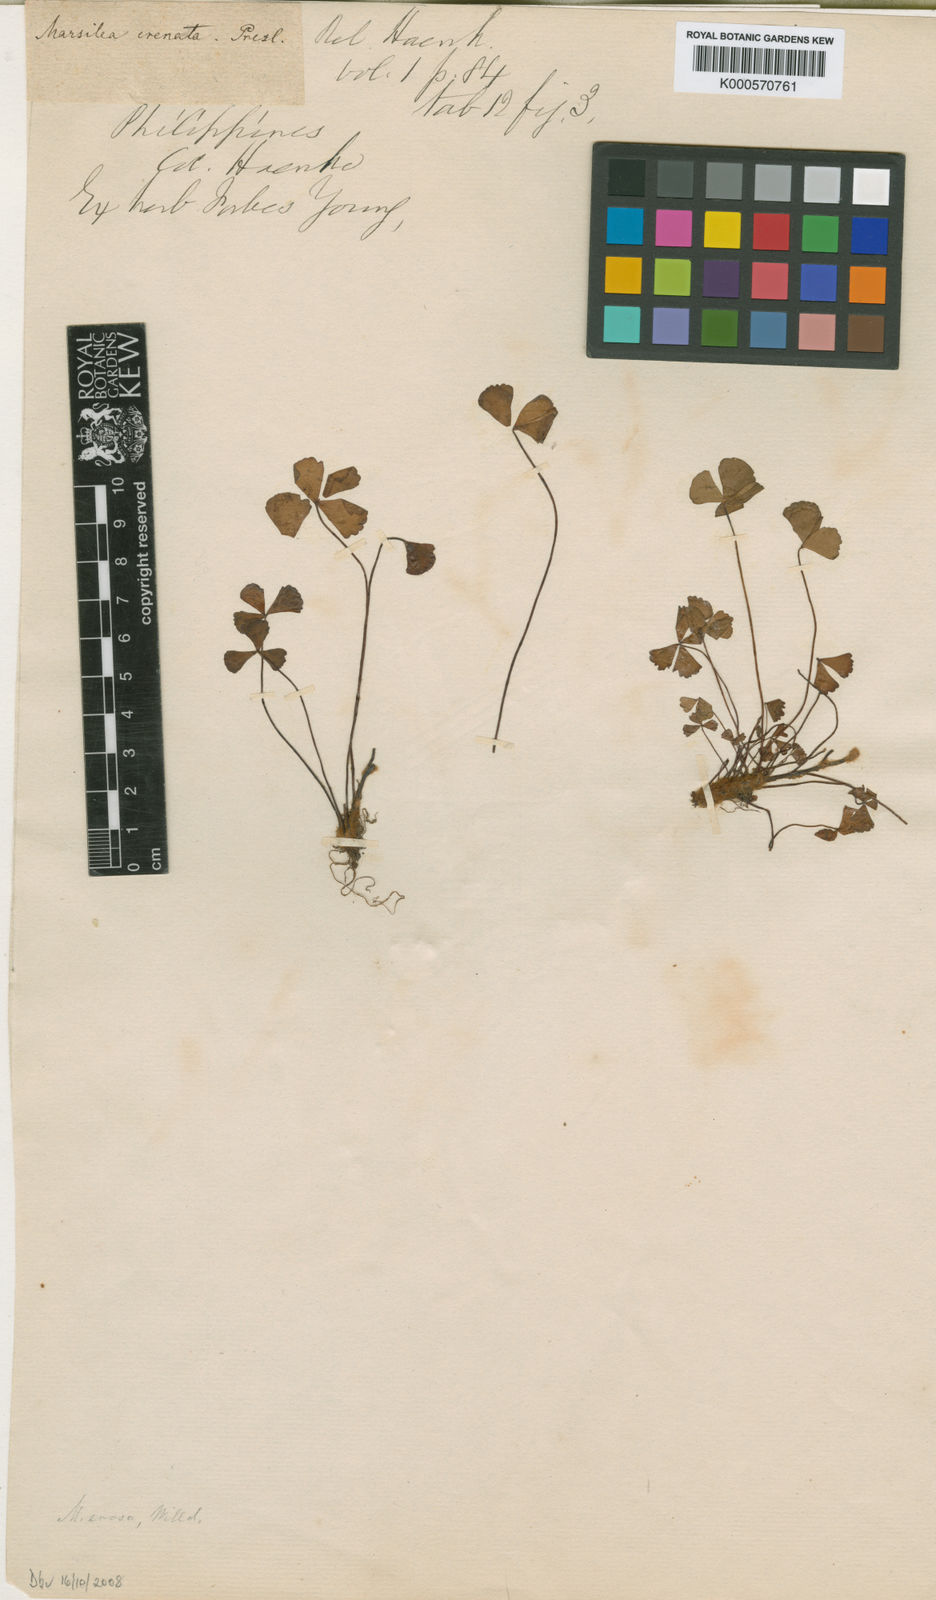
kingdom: Plantae
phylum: Tracheophyta
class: Polypodiopsida
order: Salviniales
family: Marsileaceae
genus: Marsilea
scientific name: Marsilea crenata
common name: False pepperwort
